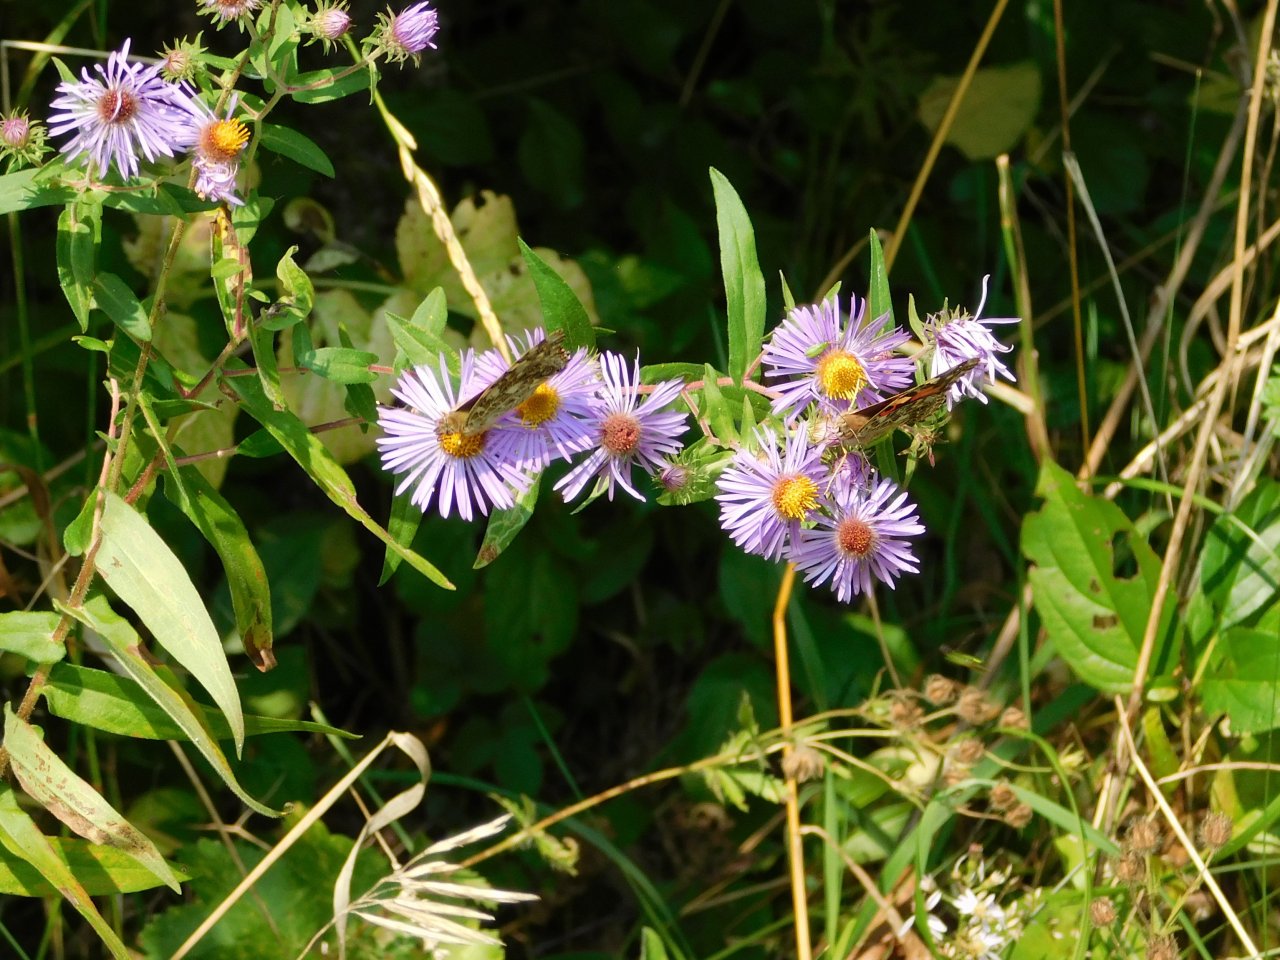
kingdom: Animalia
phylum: Arthropoda
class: Insecta
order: Lepidoptera
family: Nymphalidae
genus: Vanessa
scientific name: Vanessa cardui
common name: Painted Lady
